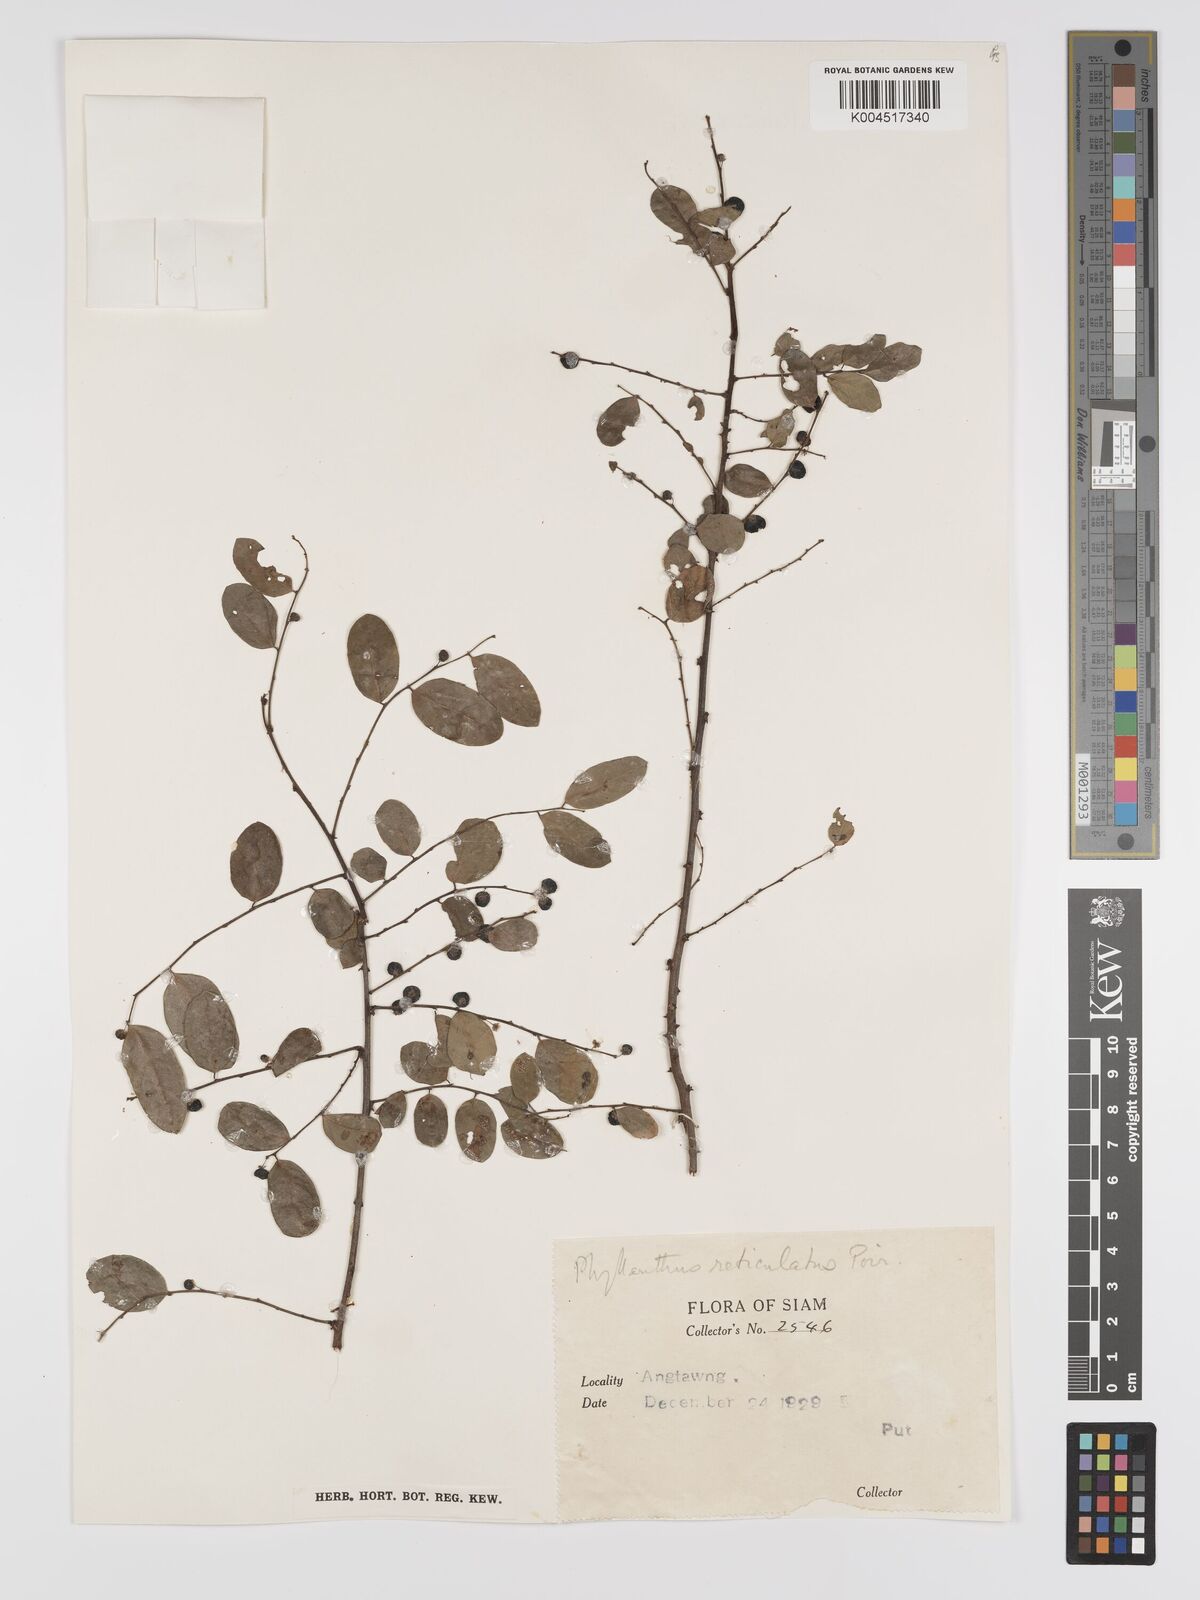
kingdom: Plantae
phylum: Tracheophyta
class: Magnoliopsida
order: Malpighiales
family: Phyllanthaceae
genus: Phyllanthus
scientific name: Phyllanthus reticulatus
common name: Potato bush
